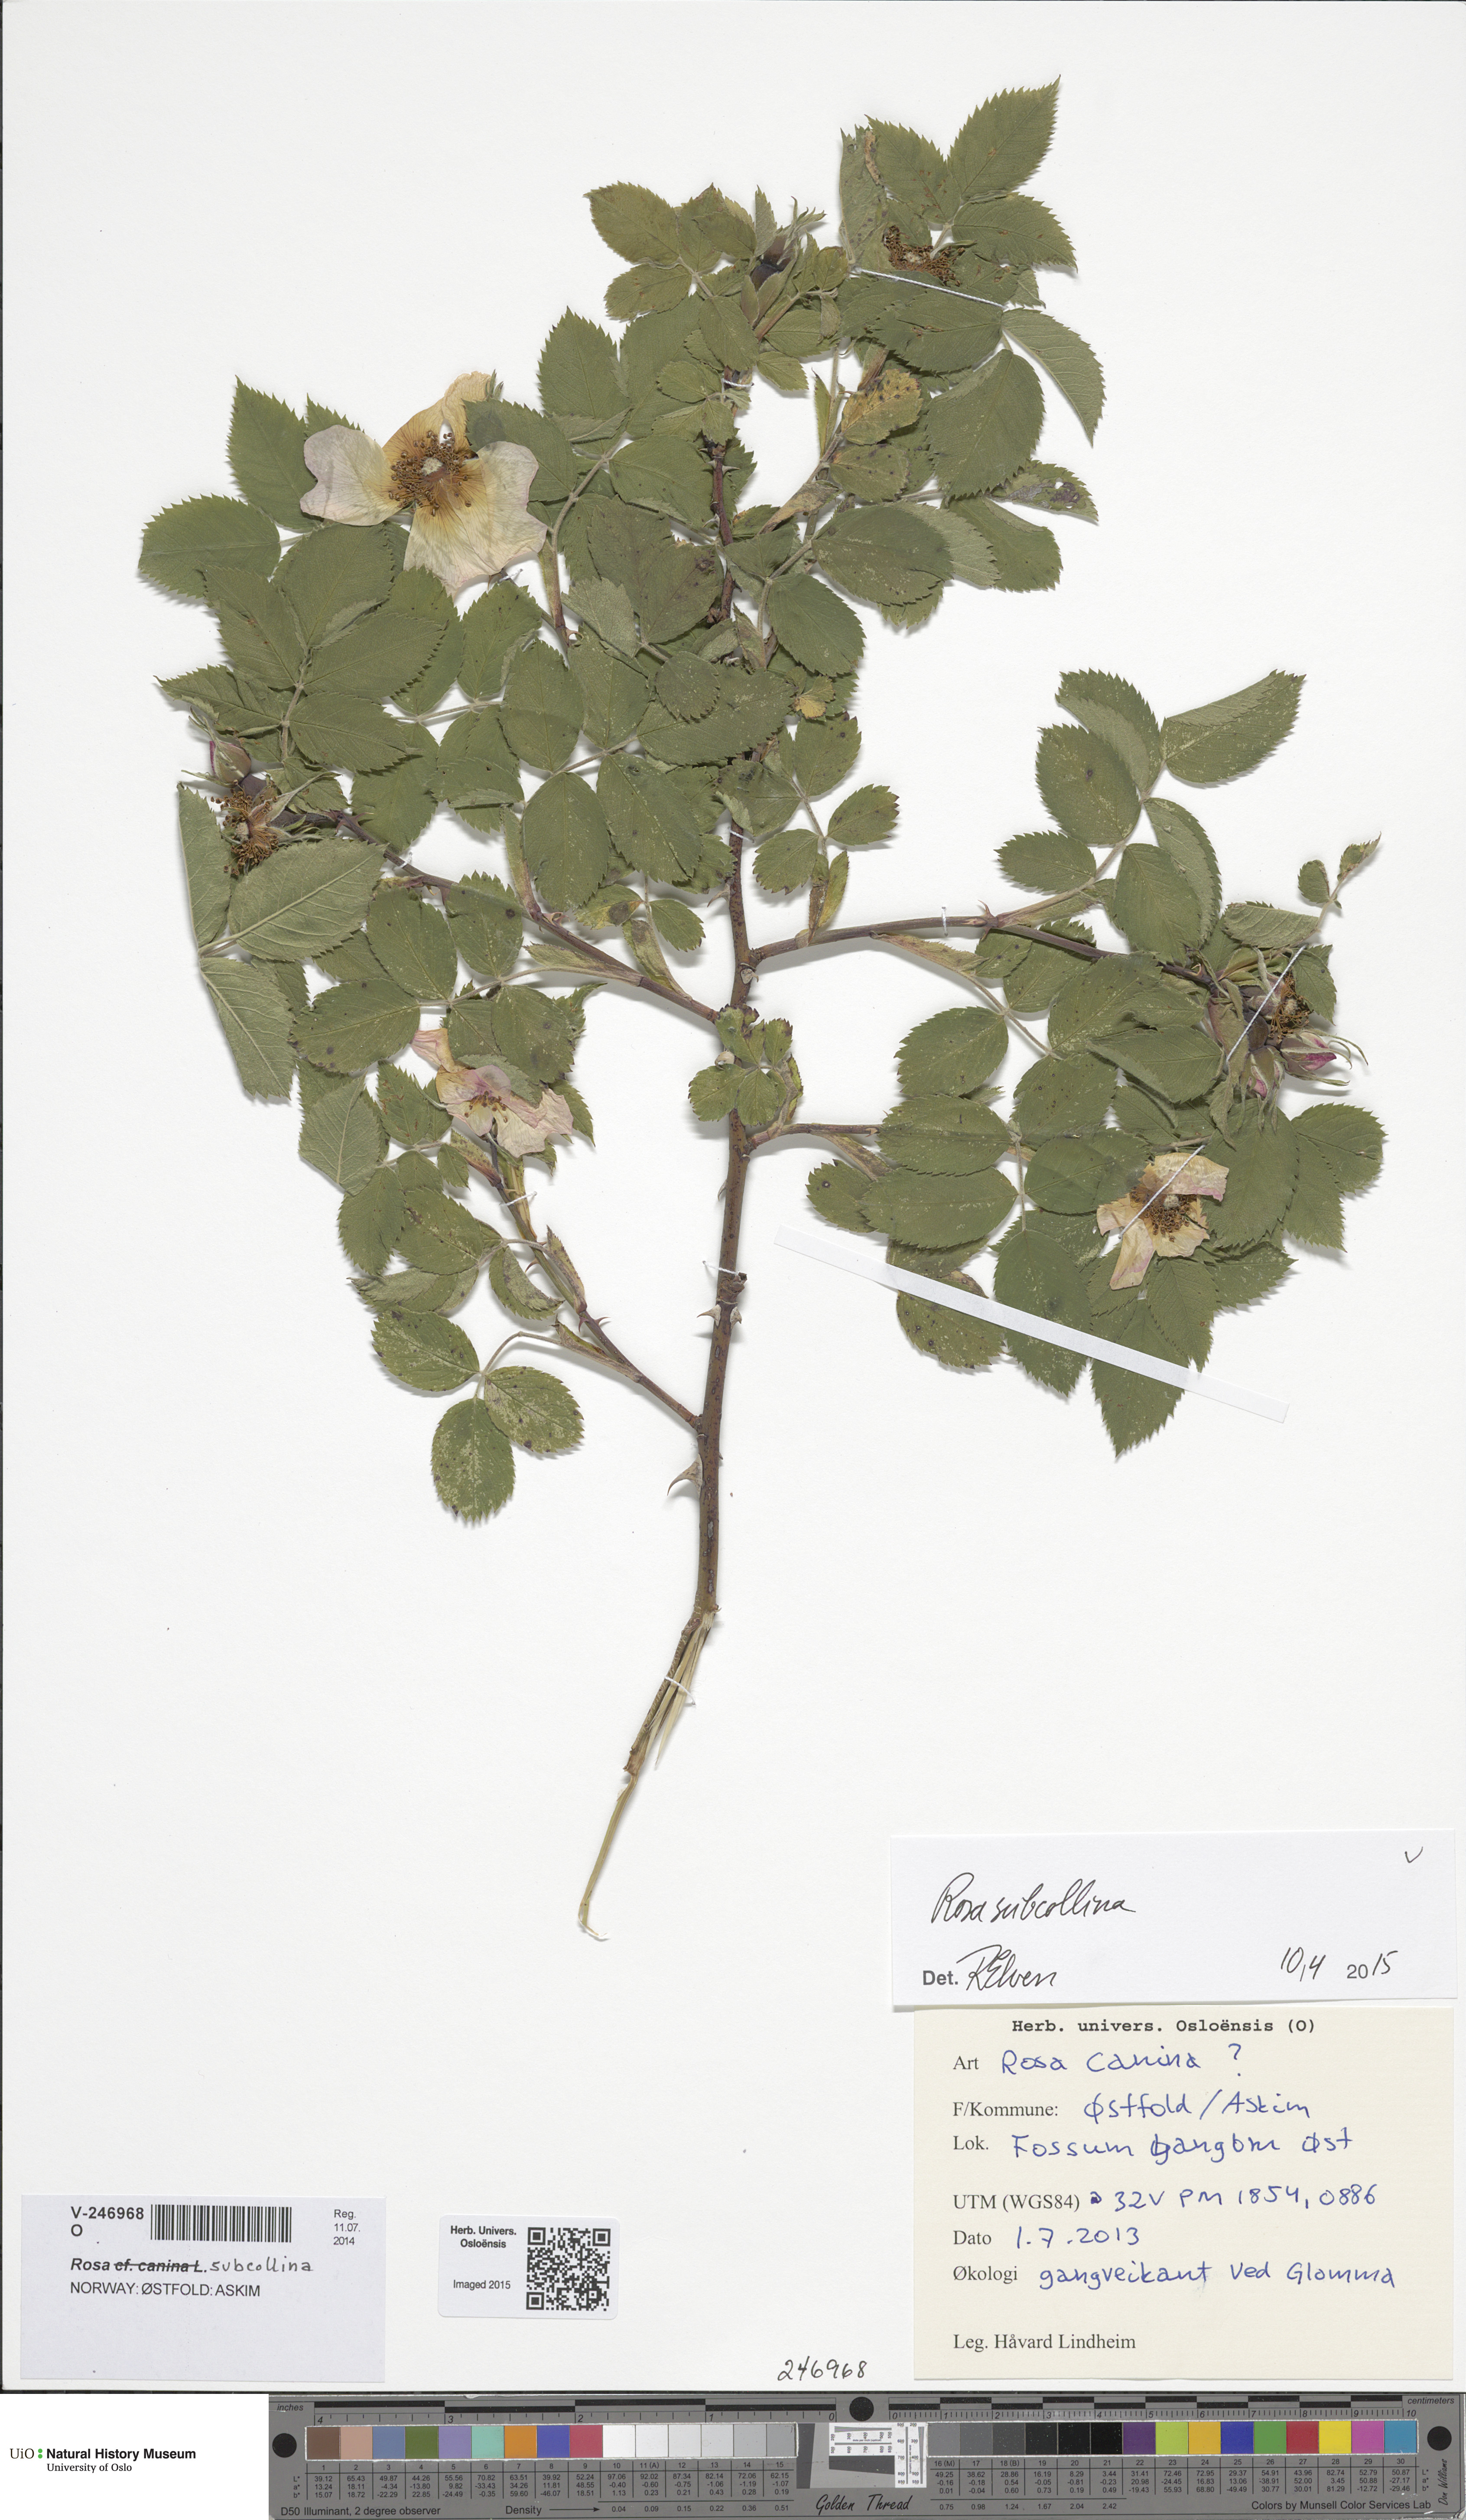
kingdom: Plantae
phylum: Tracheophyta
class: Magnoliopsida
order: Rosales
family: Rosaceae
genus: Rosa
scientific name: Rosa subcollina
